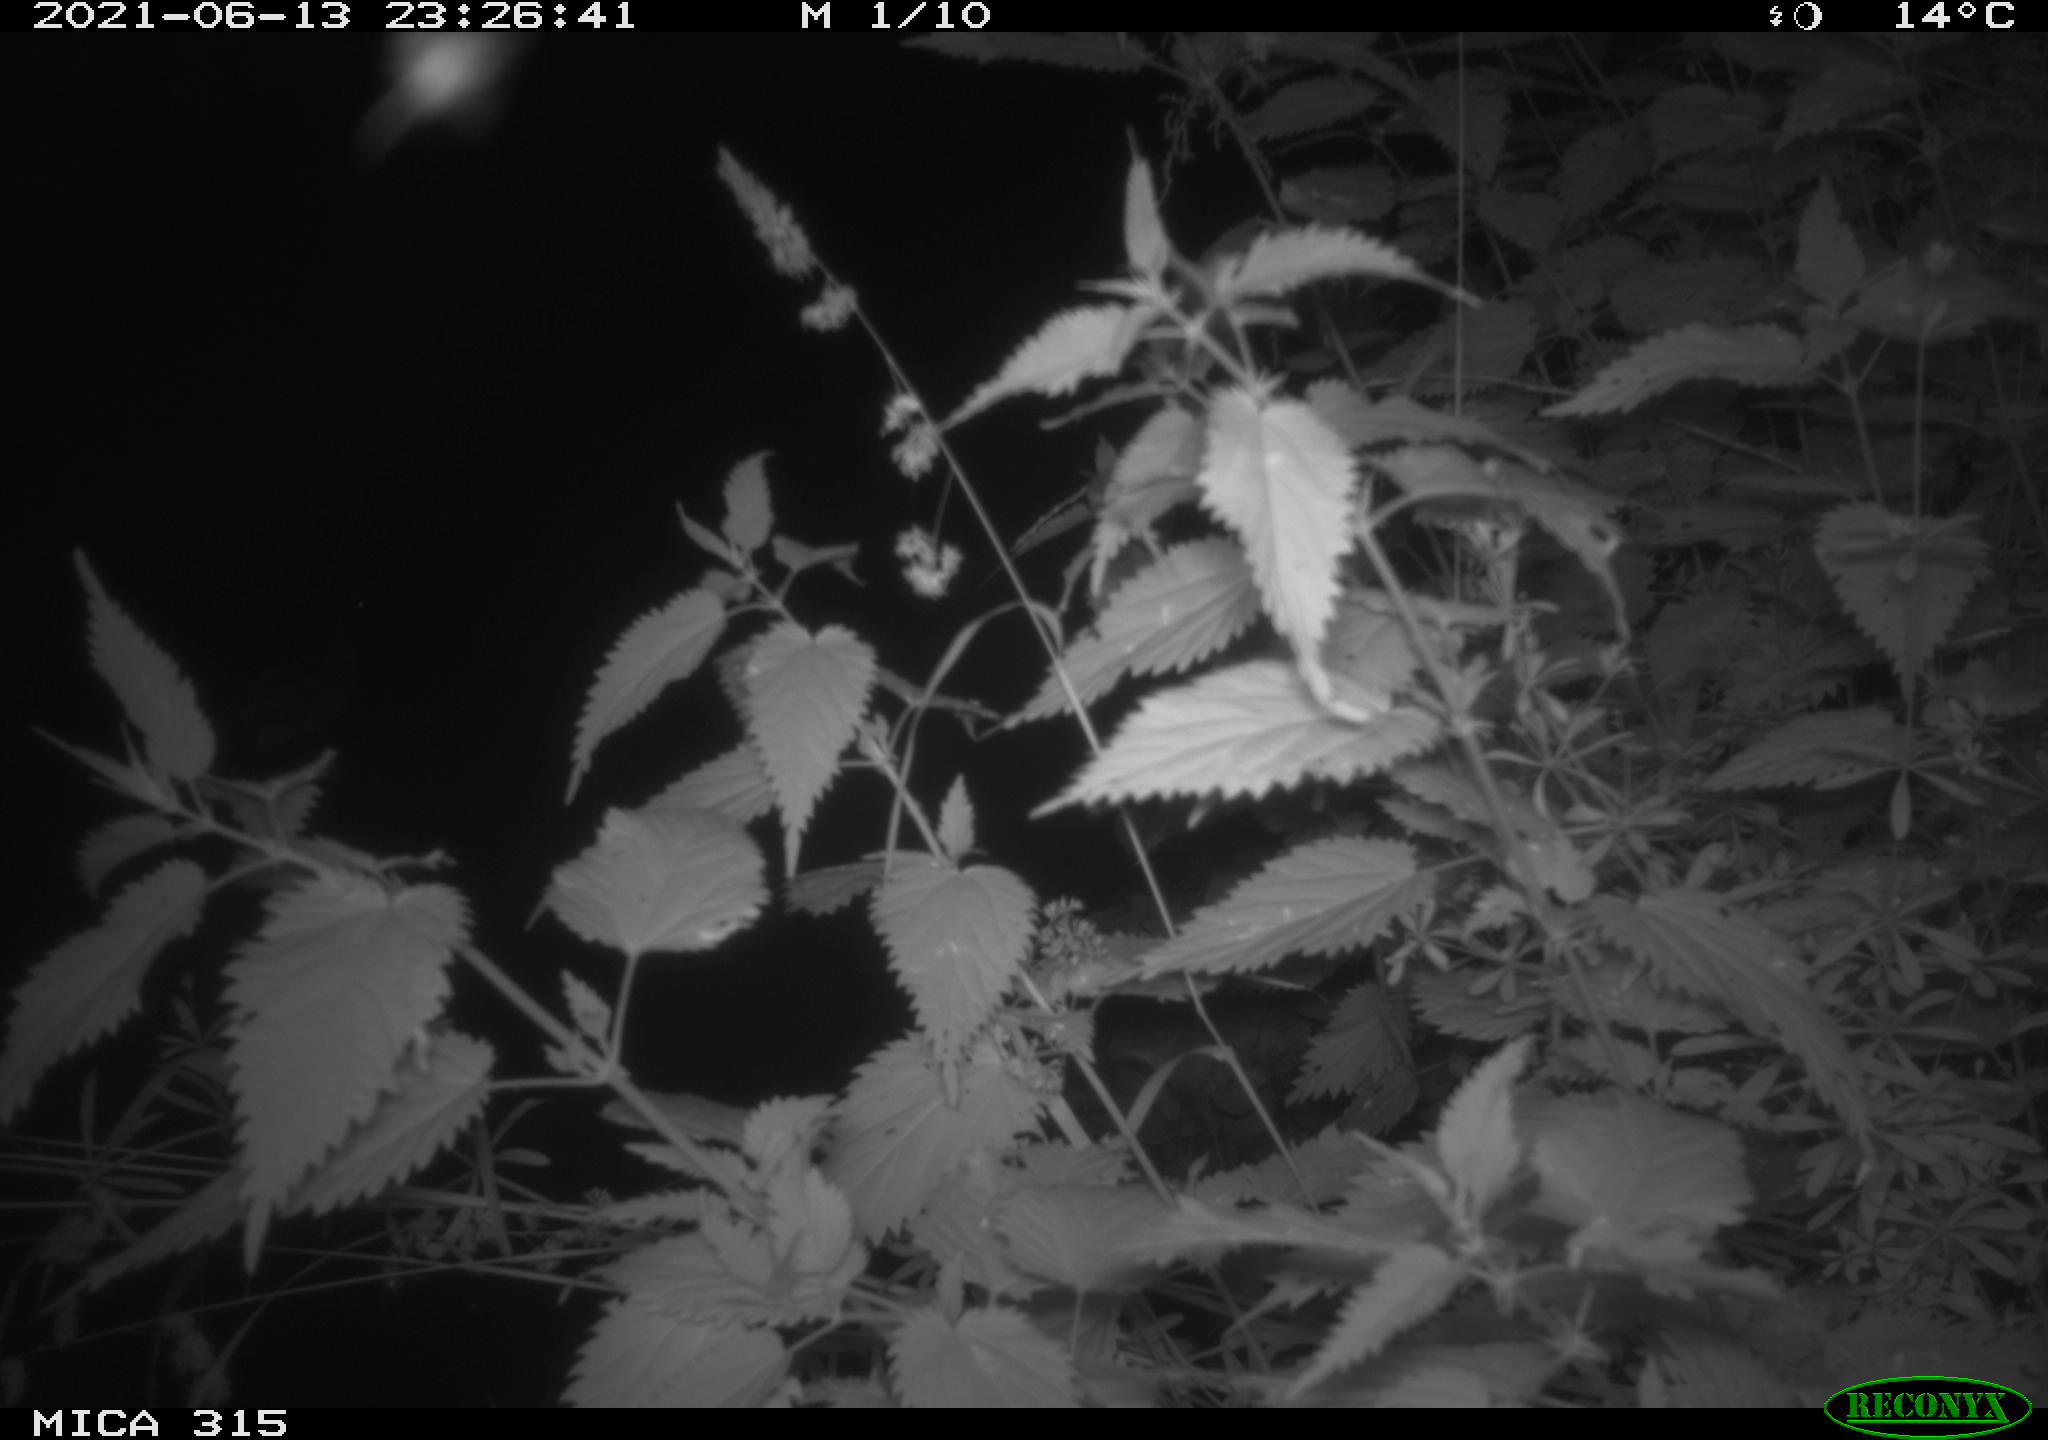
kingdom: Animalia
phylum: Chordata
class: Aves
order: Anseriformes
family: Anatidae
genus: Anas
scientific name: Anas platyrhynchos
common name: Mallard
